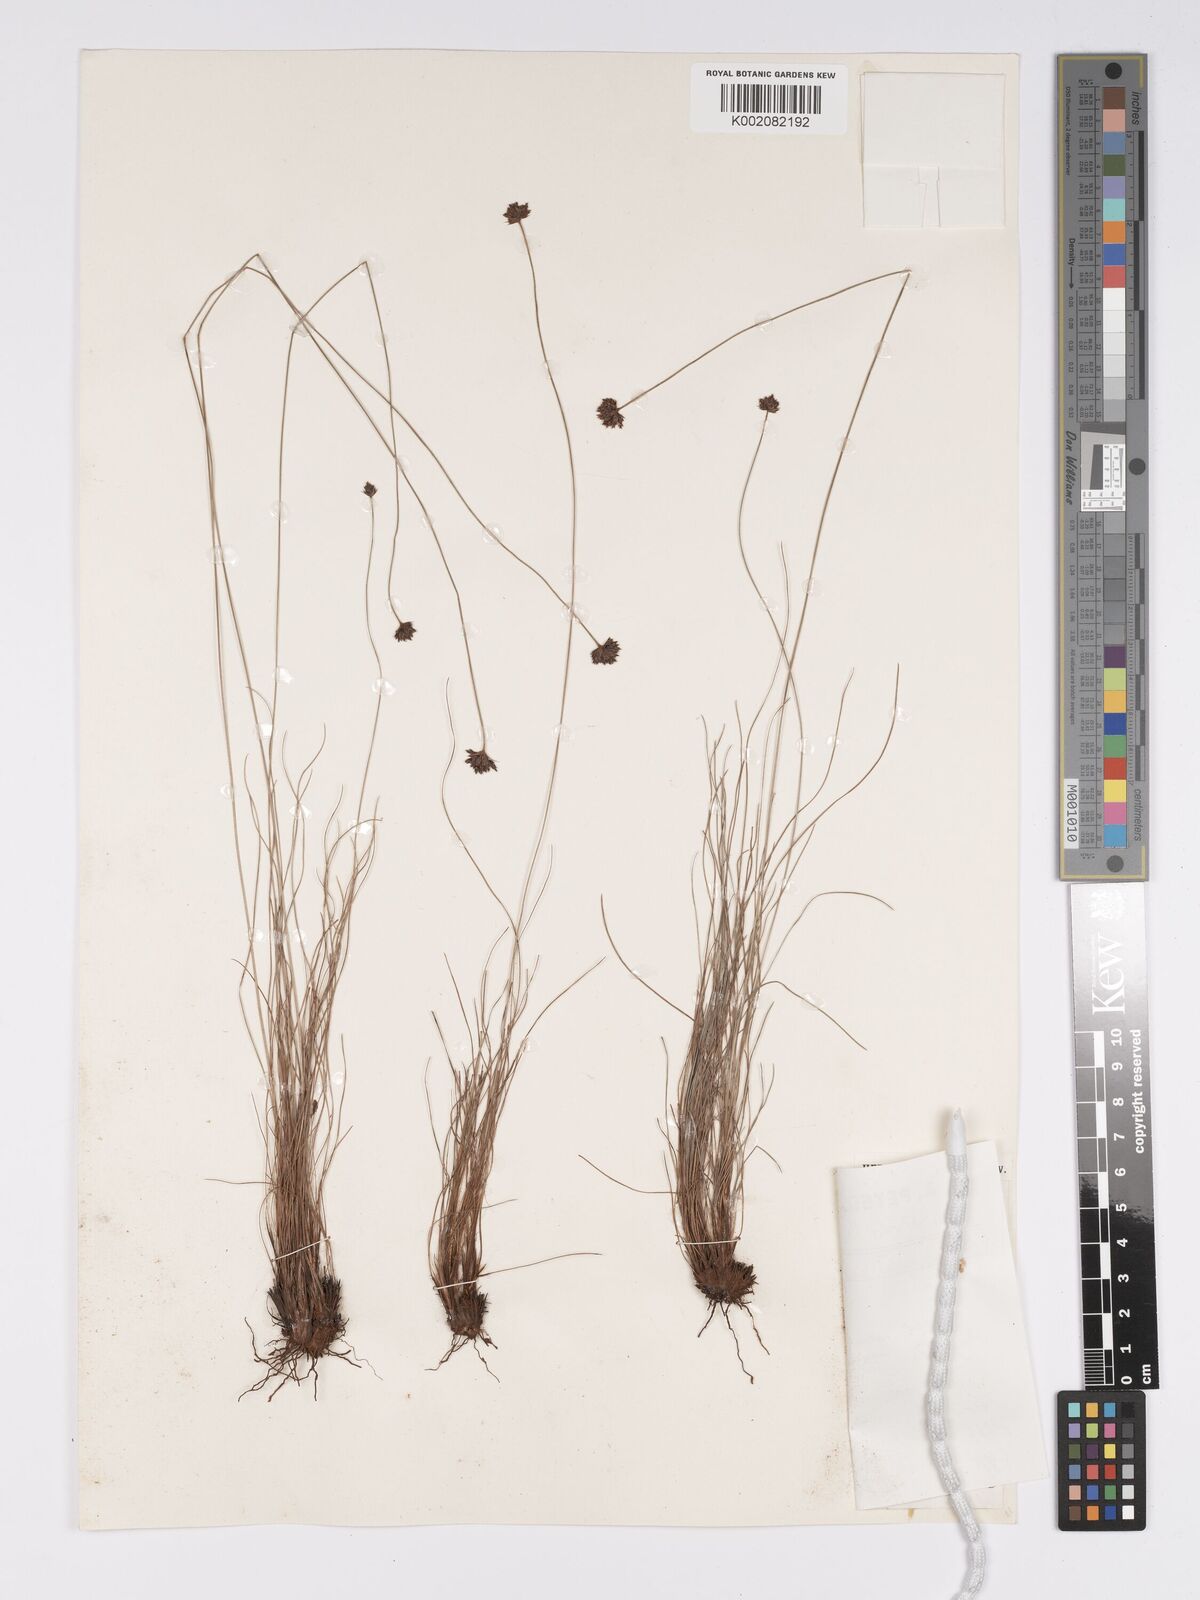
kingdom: Plantae
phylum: Tracheophyta
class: Liliopsida
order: Poales
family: Cyperaceae
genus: Bulbostylis
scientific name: Bulbostylis filamentosa
